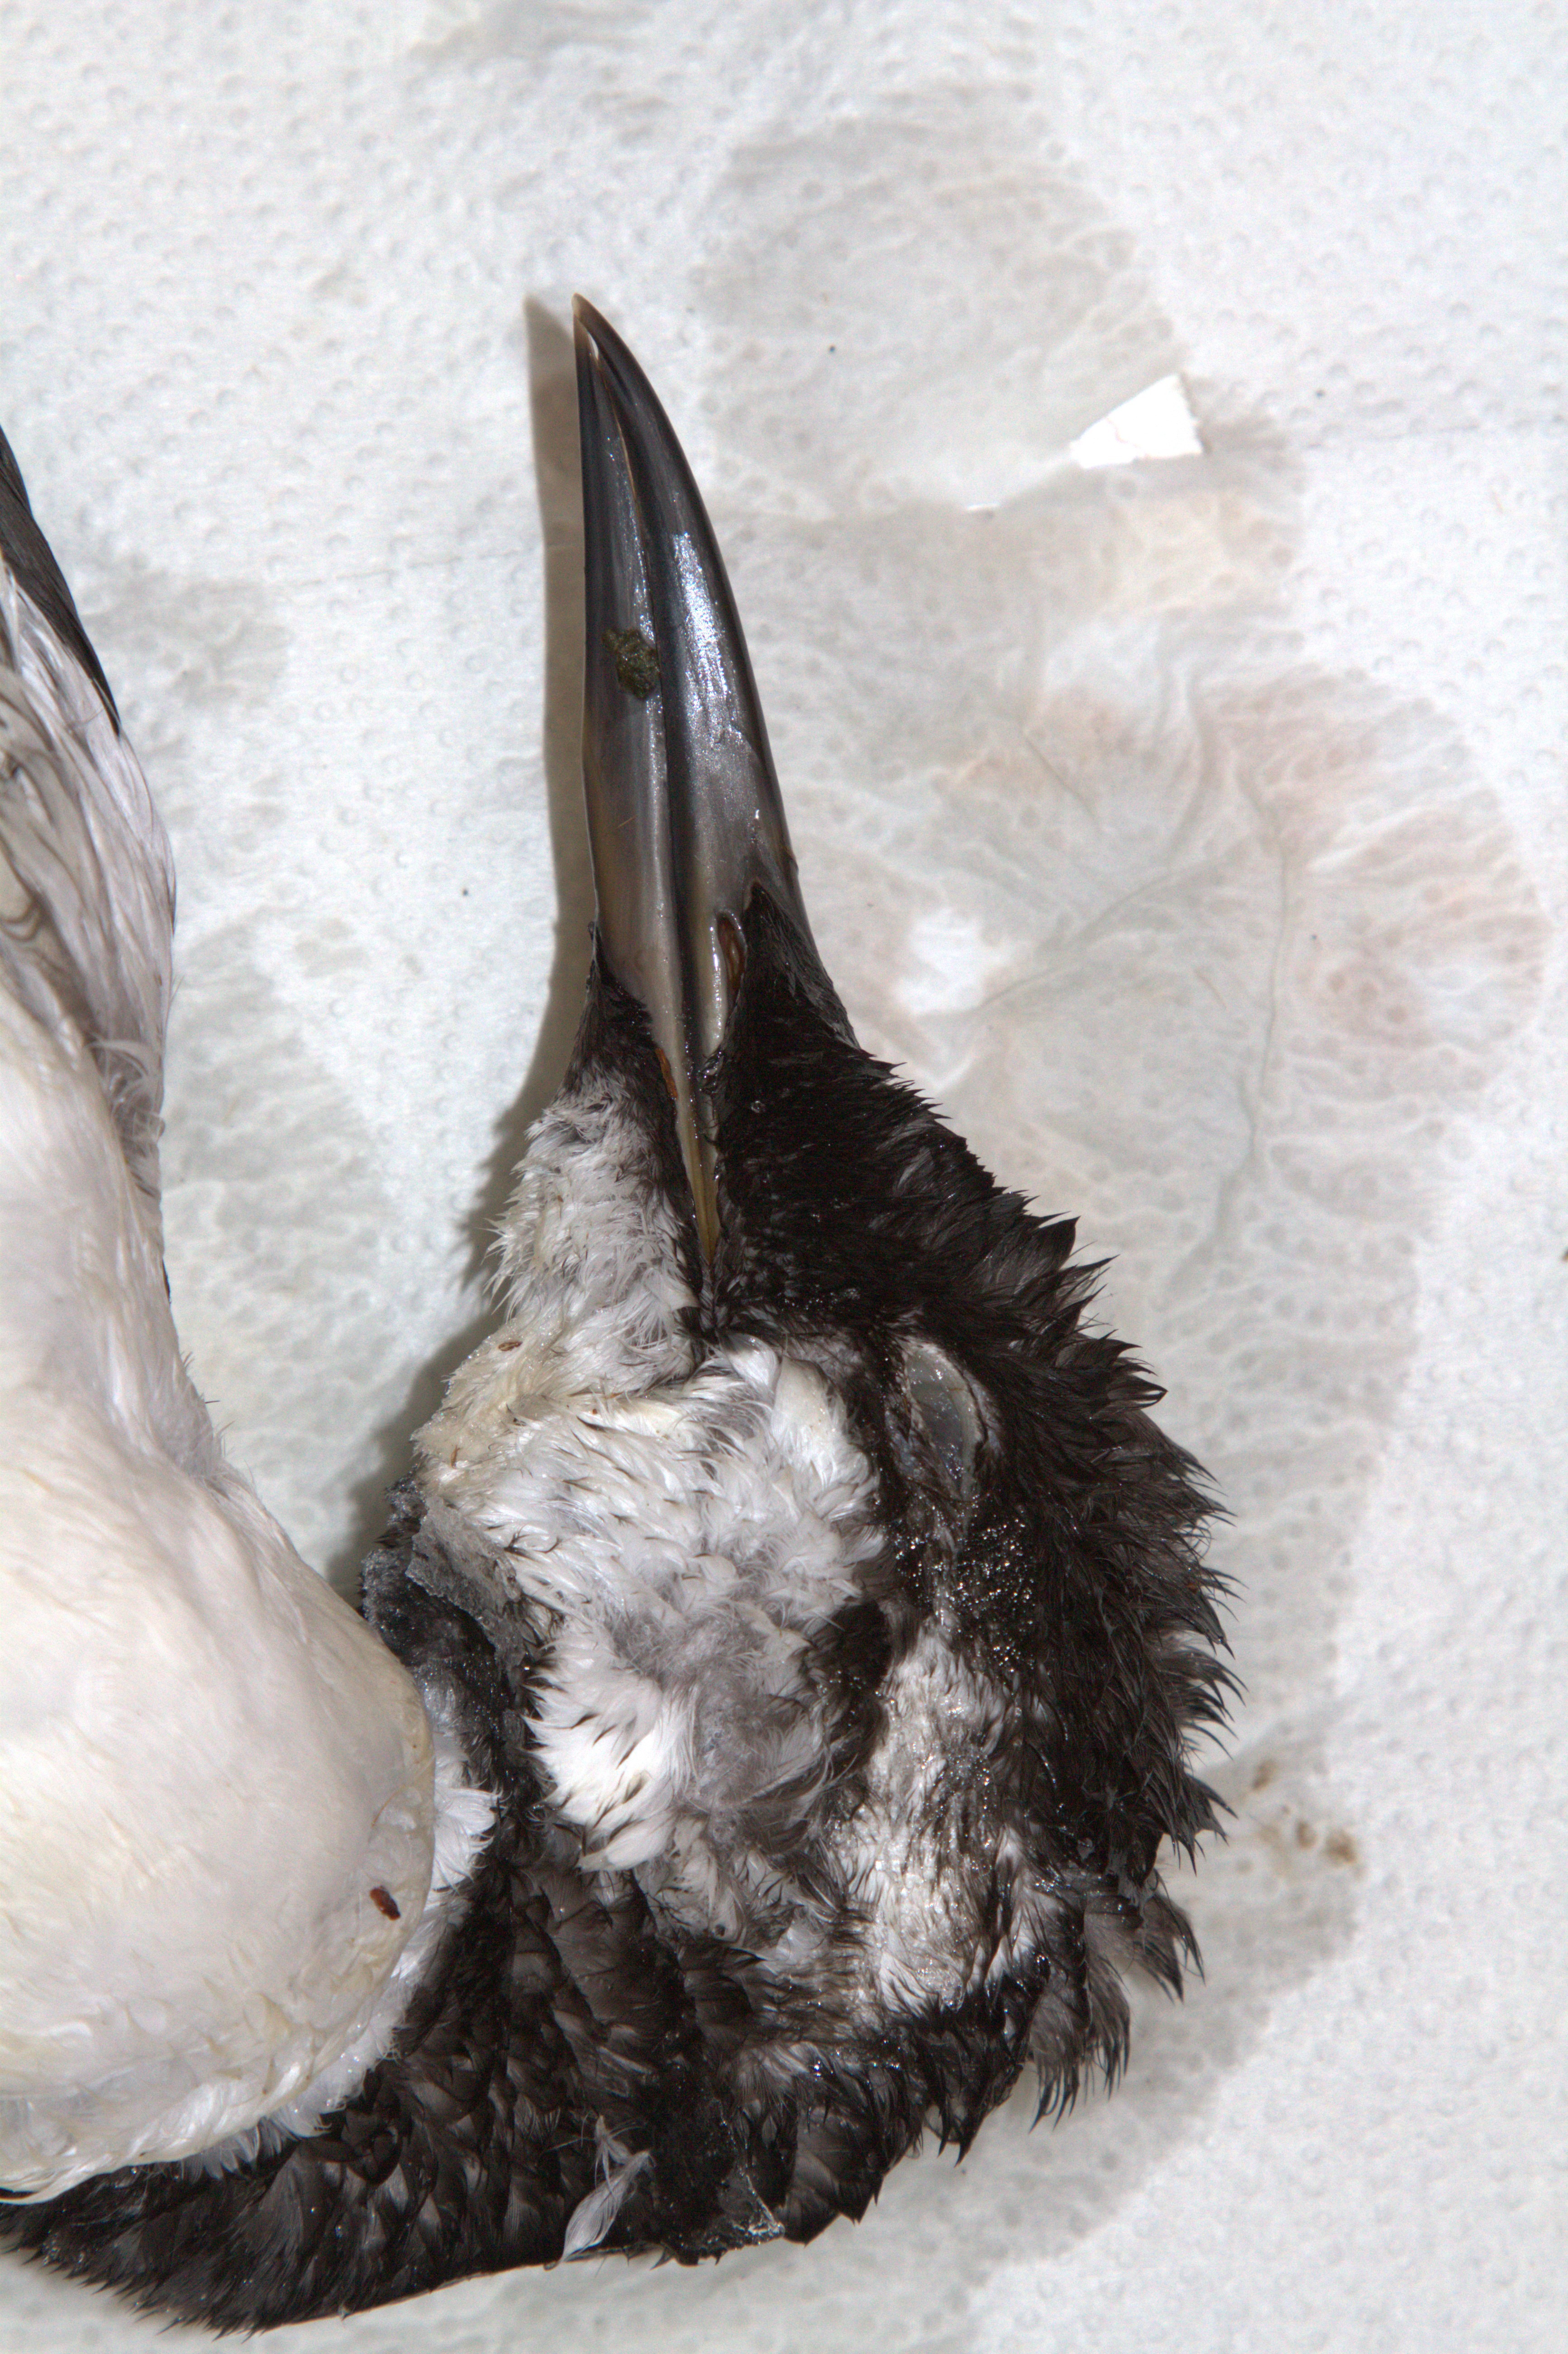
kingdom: Animalia
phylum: Chordata
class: Aves
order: Charadriiformes
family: Alcidae
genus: Uria
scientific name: Uria aalge
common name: Common murre
